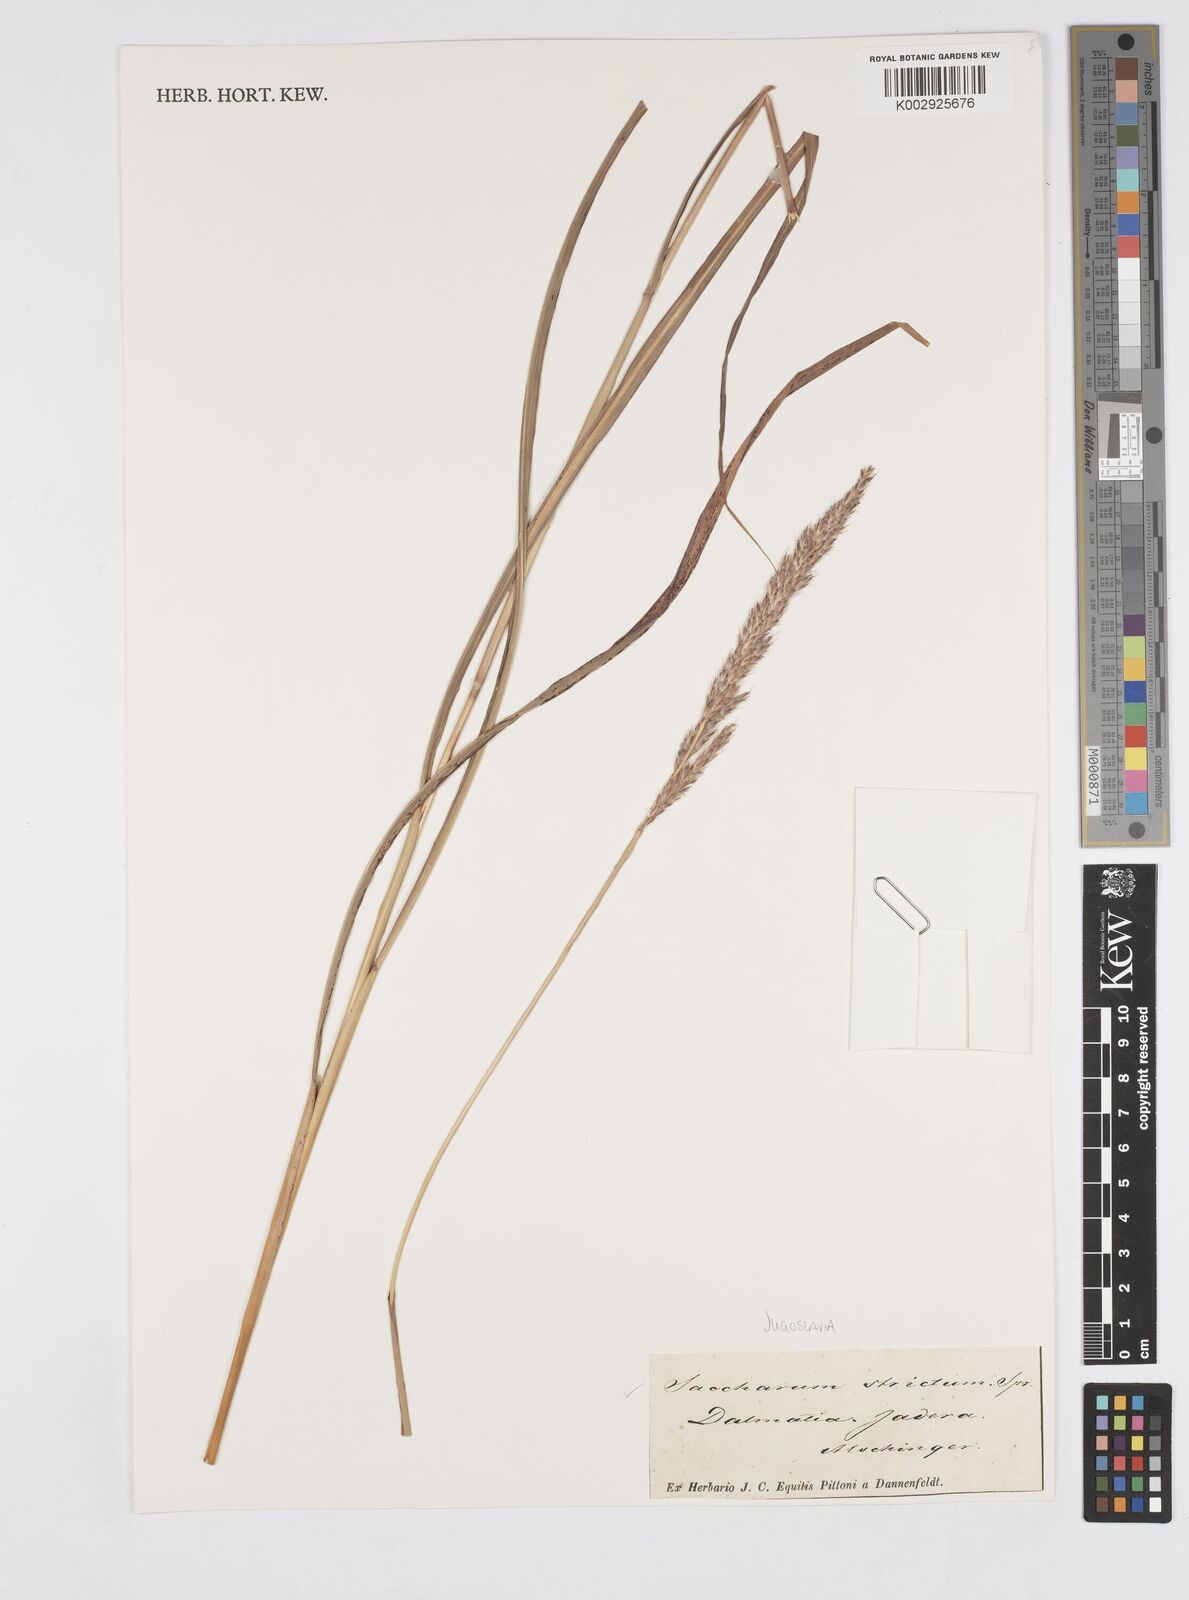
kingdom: Plantae
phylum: Tracheophyta
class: Liliopsida
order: Poales
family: Poaceae
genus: Tripidium
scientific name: Tripidium strictum
